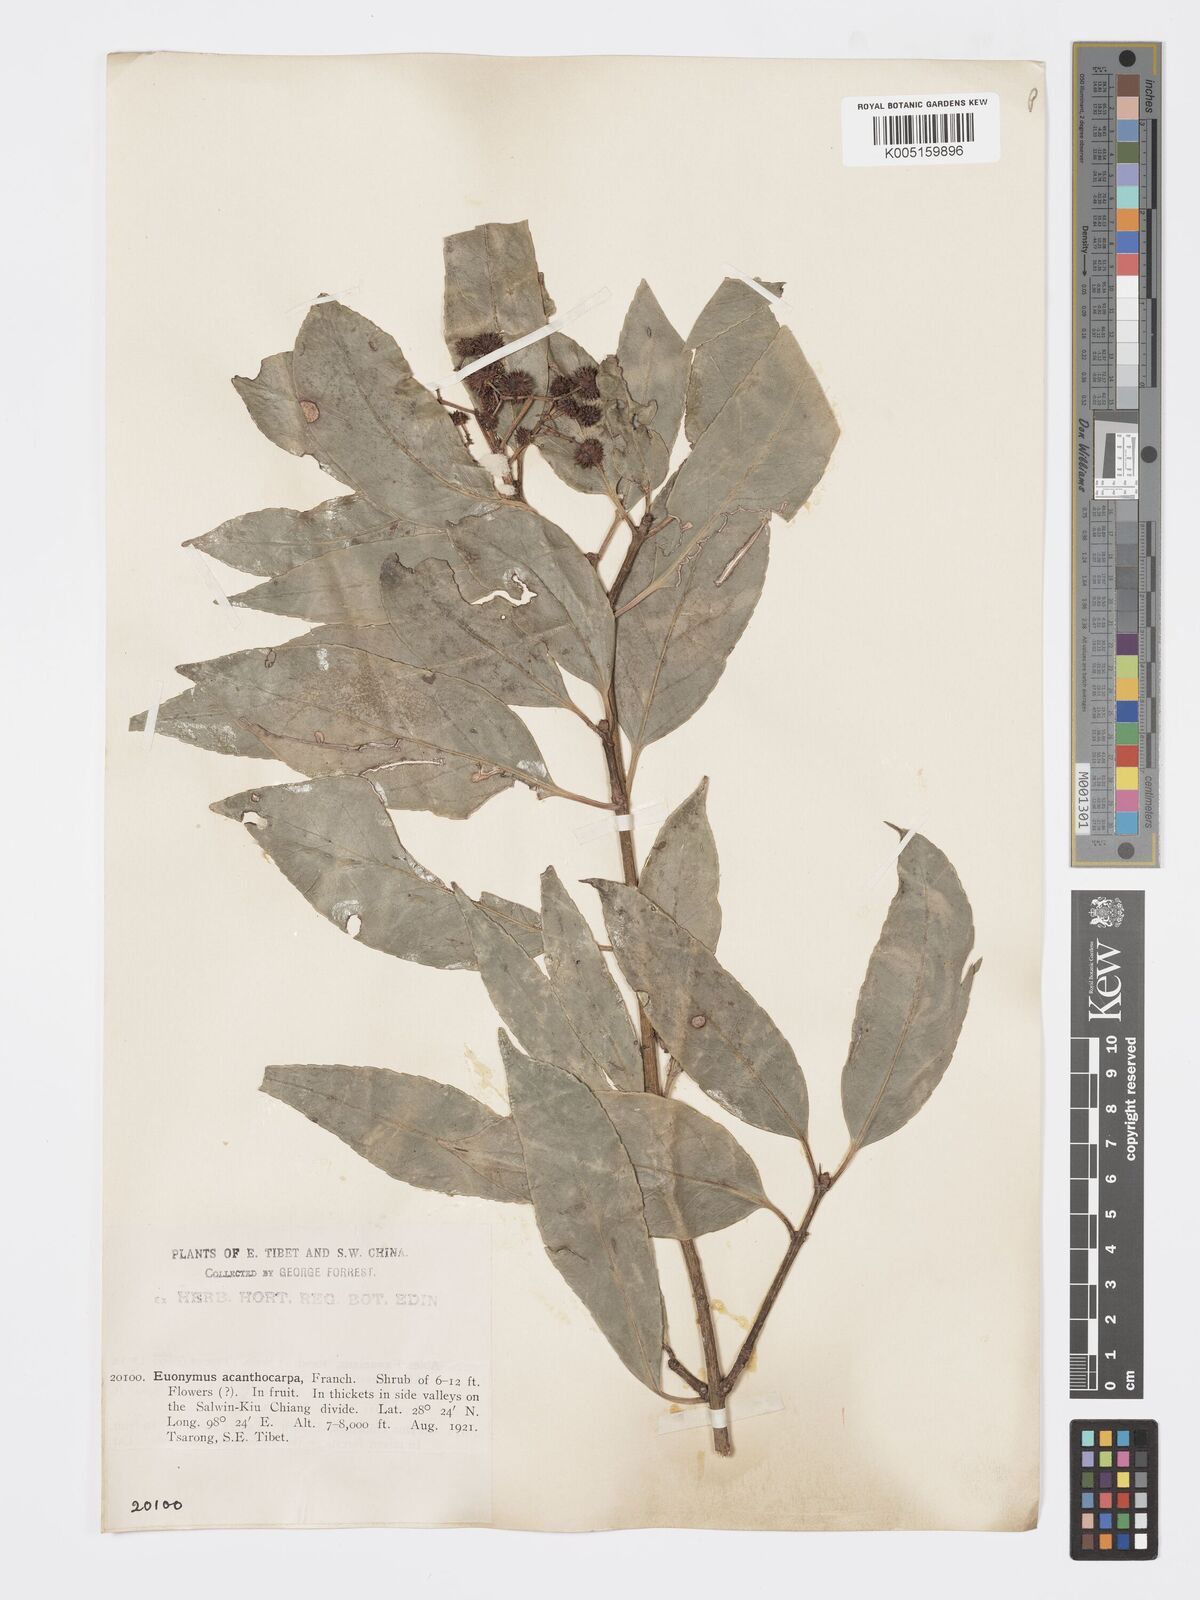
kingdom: Plantae
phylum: Tracheophyta
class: Magnoliopsida
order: Celastrales
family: Celastraceae
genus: Euonymus
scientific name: Euonymus acanthocarpus
